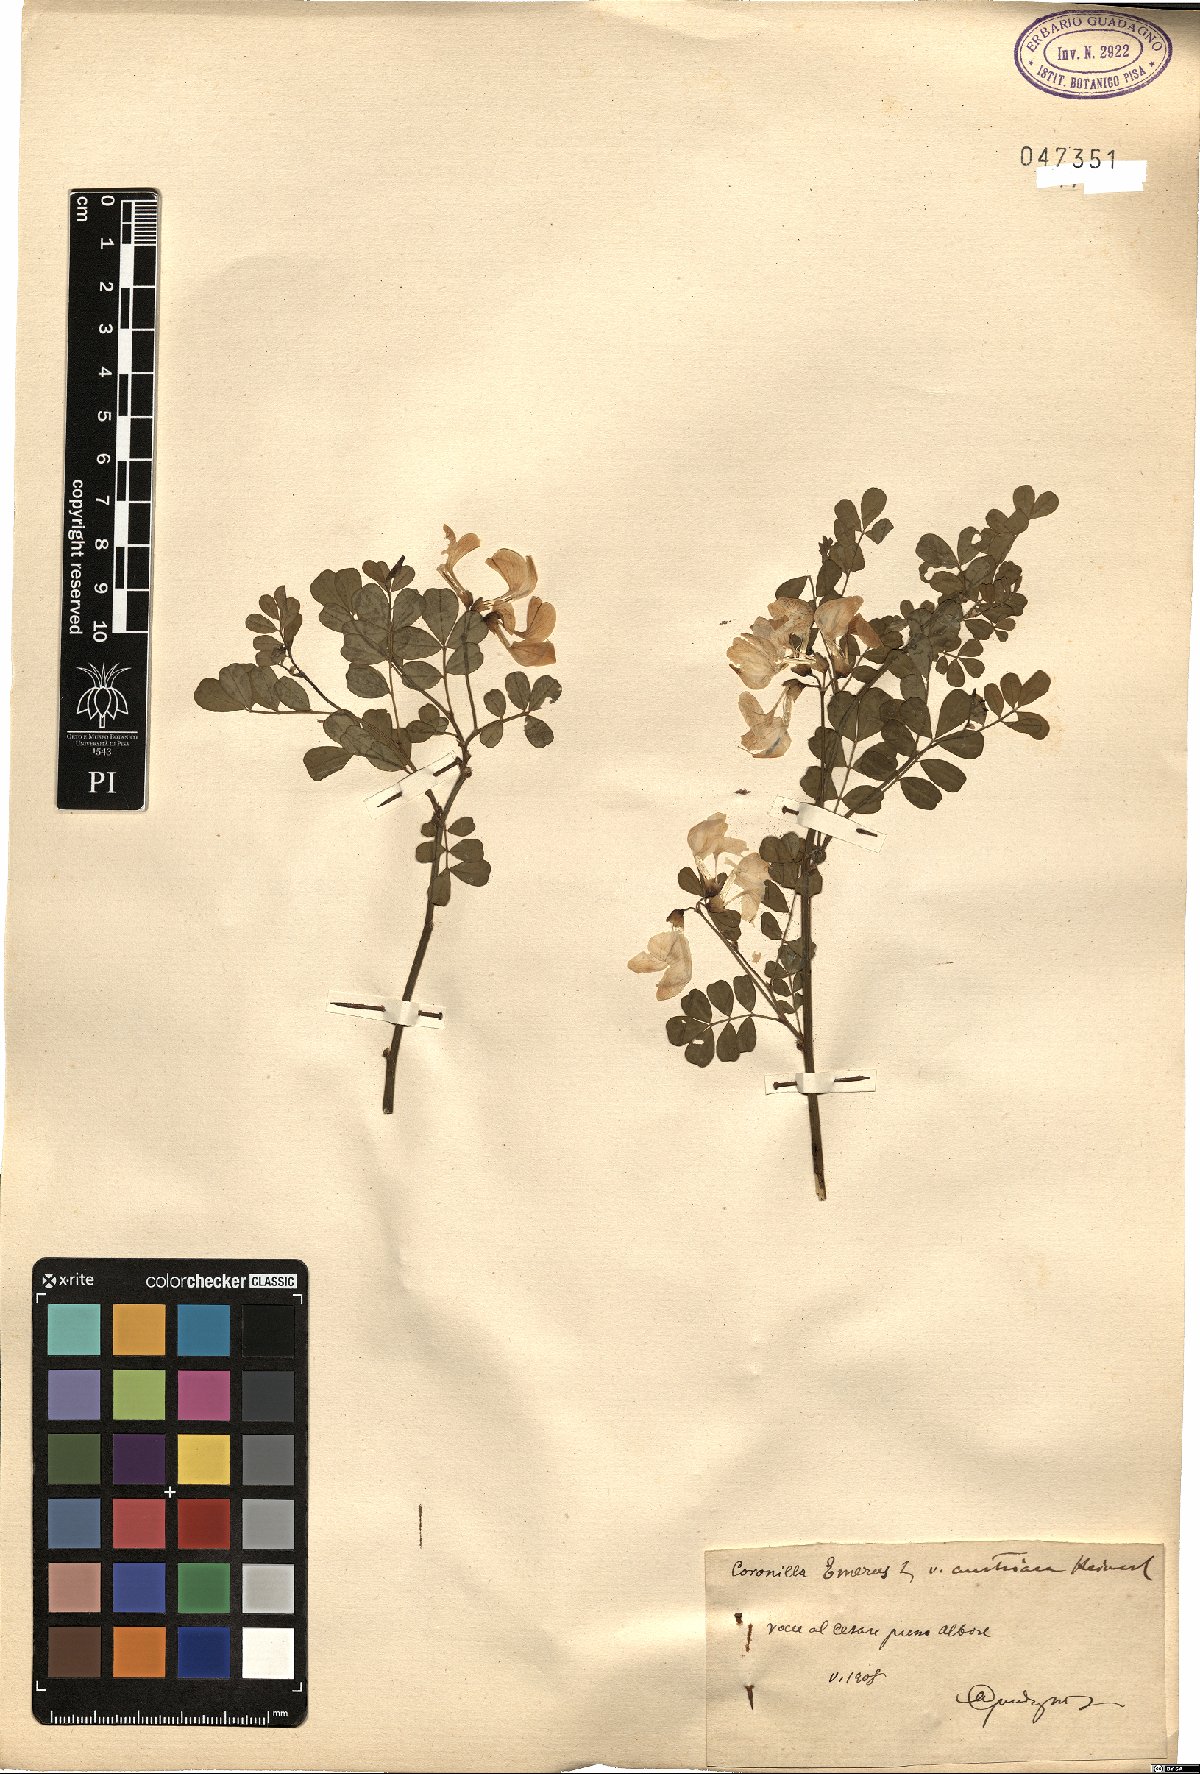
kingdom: Plantae
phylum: Tracheophyta
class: Magnoliopsida
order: Fabales
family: Fabaceae
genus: Hippocrepis
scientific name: Hippocrepis emerus
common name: Scorpion senna
